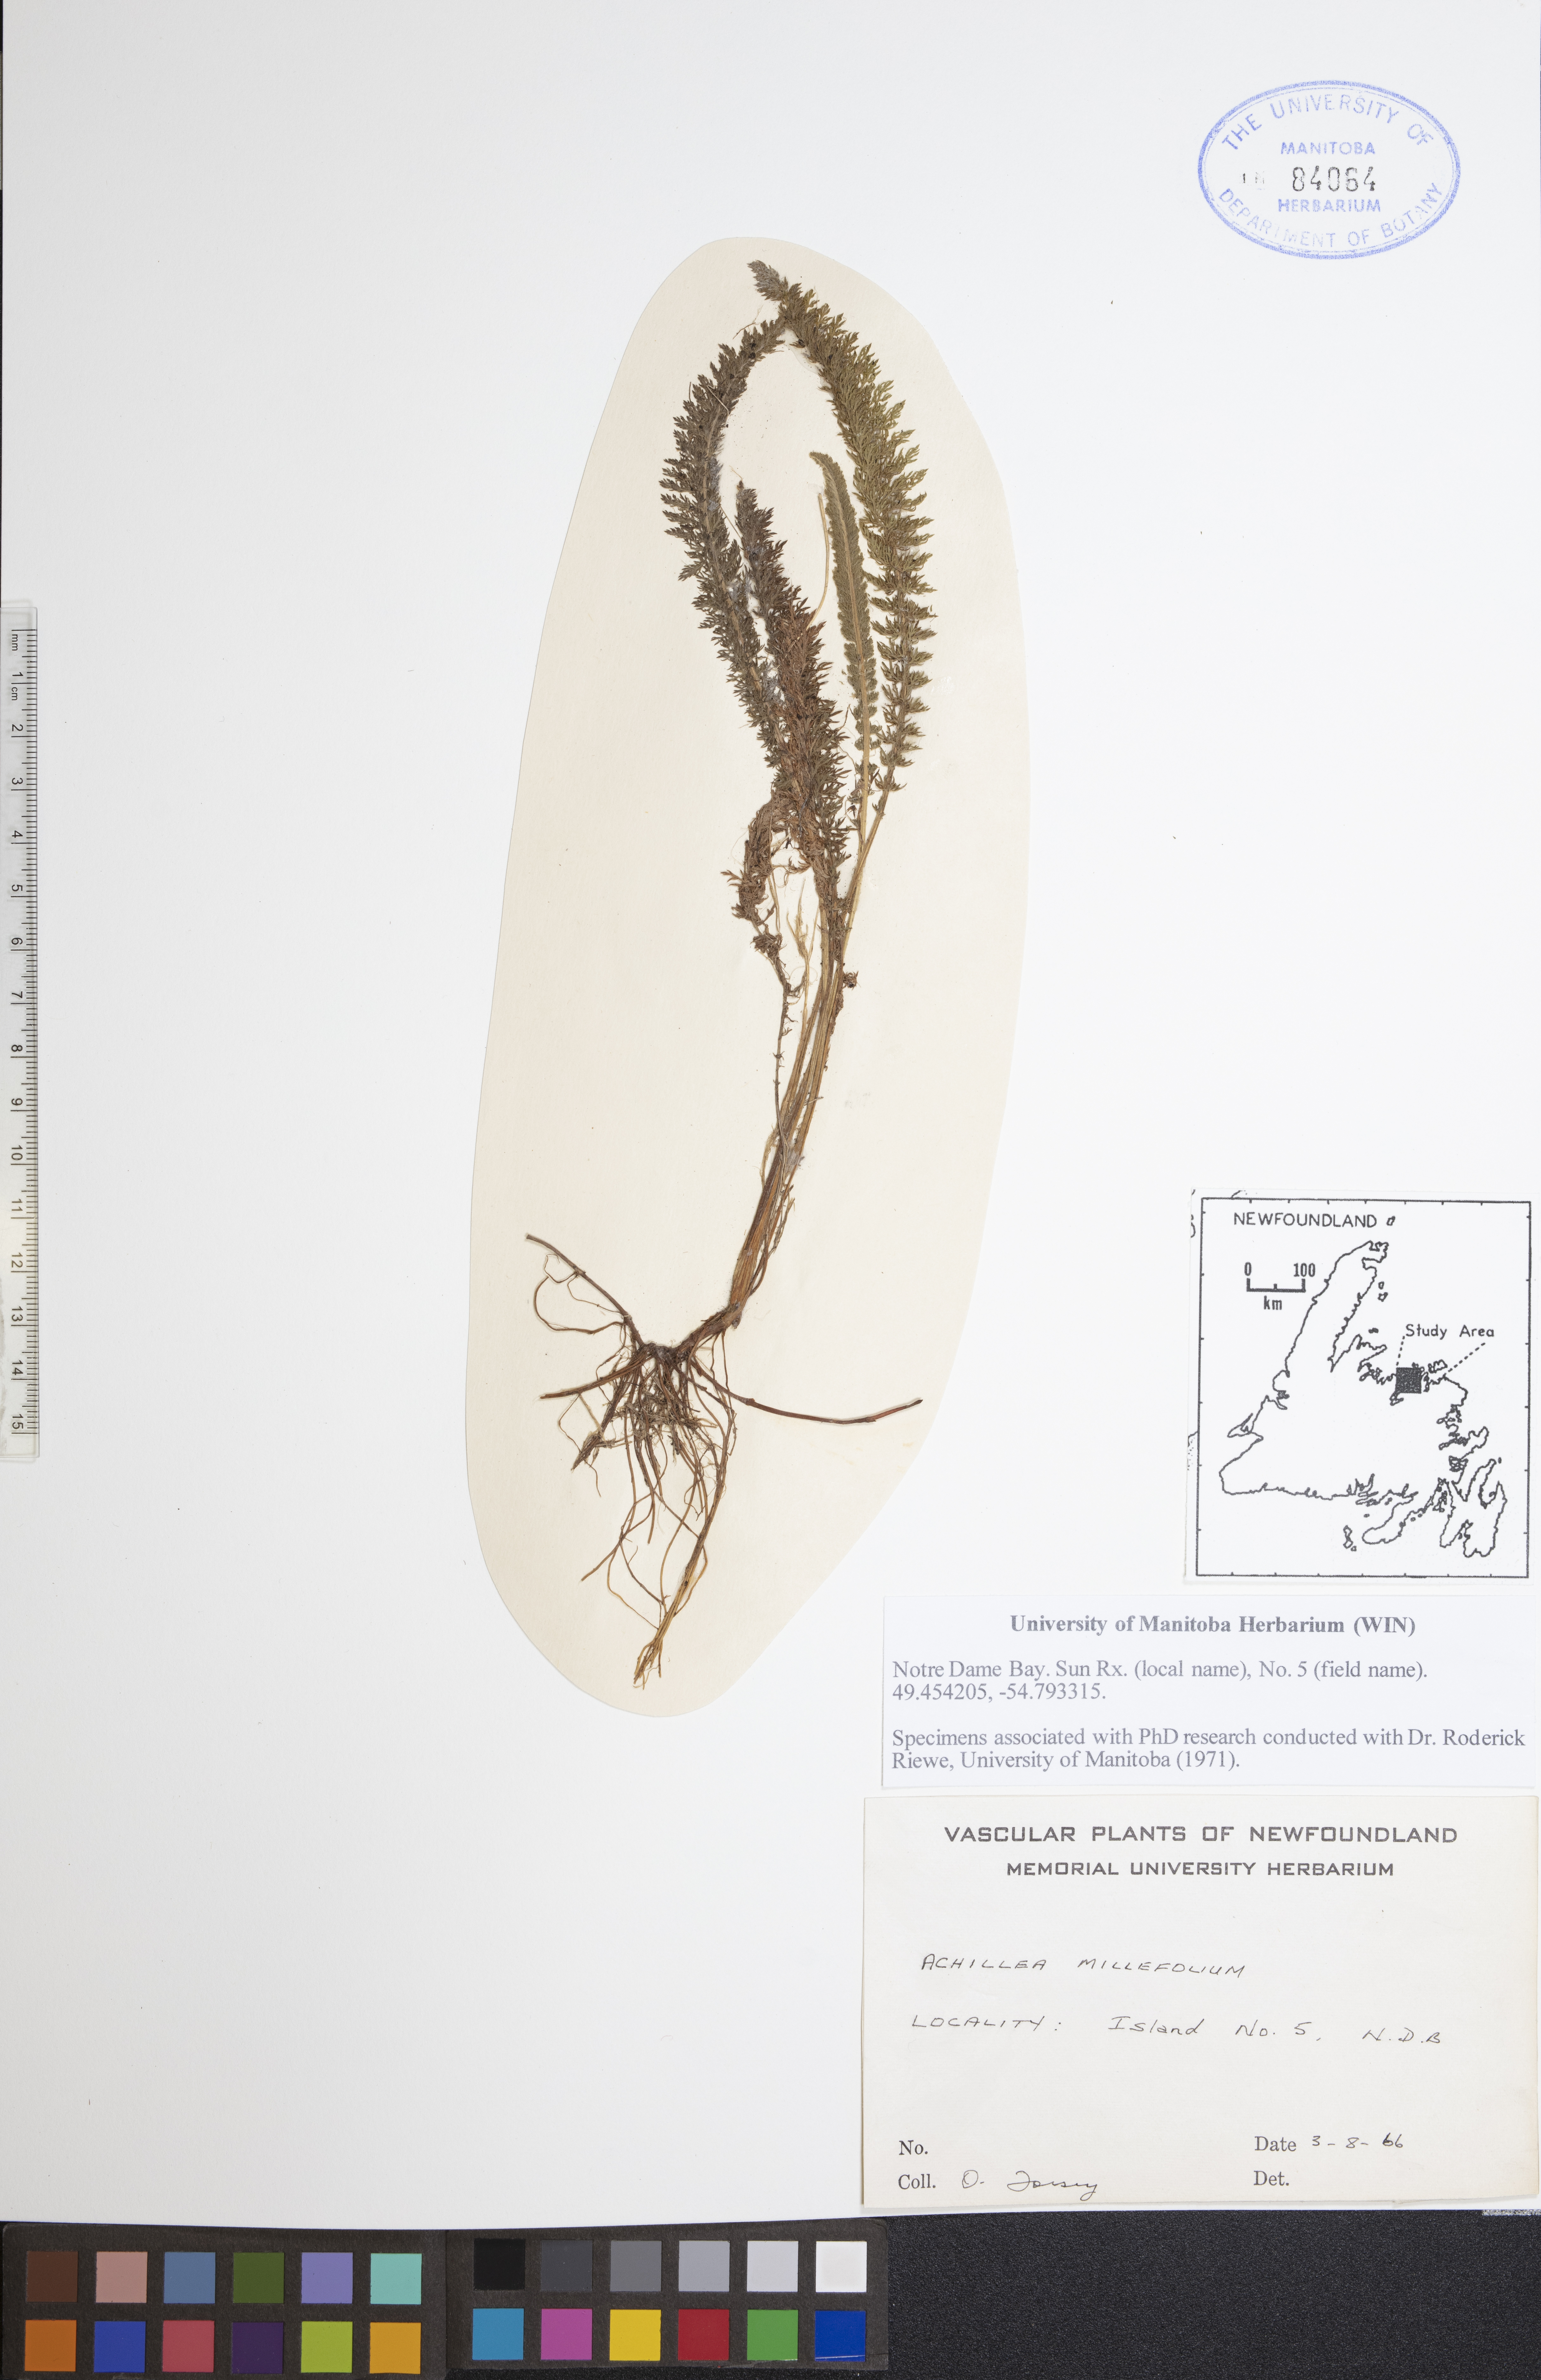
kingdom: Plantae
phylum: Tracheophyta
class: Magnoliopsida
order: Asterales
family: Asteraceae
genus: Achillea
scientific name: Achillea millefolium
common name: Yarrow
